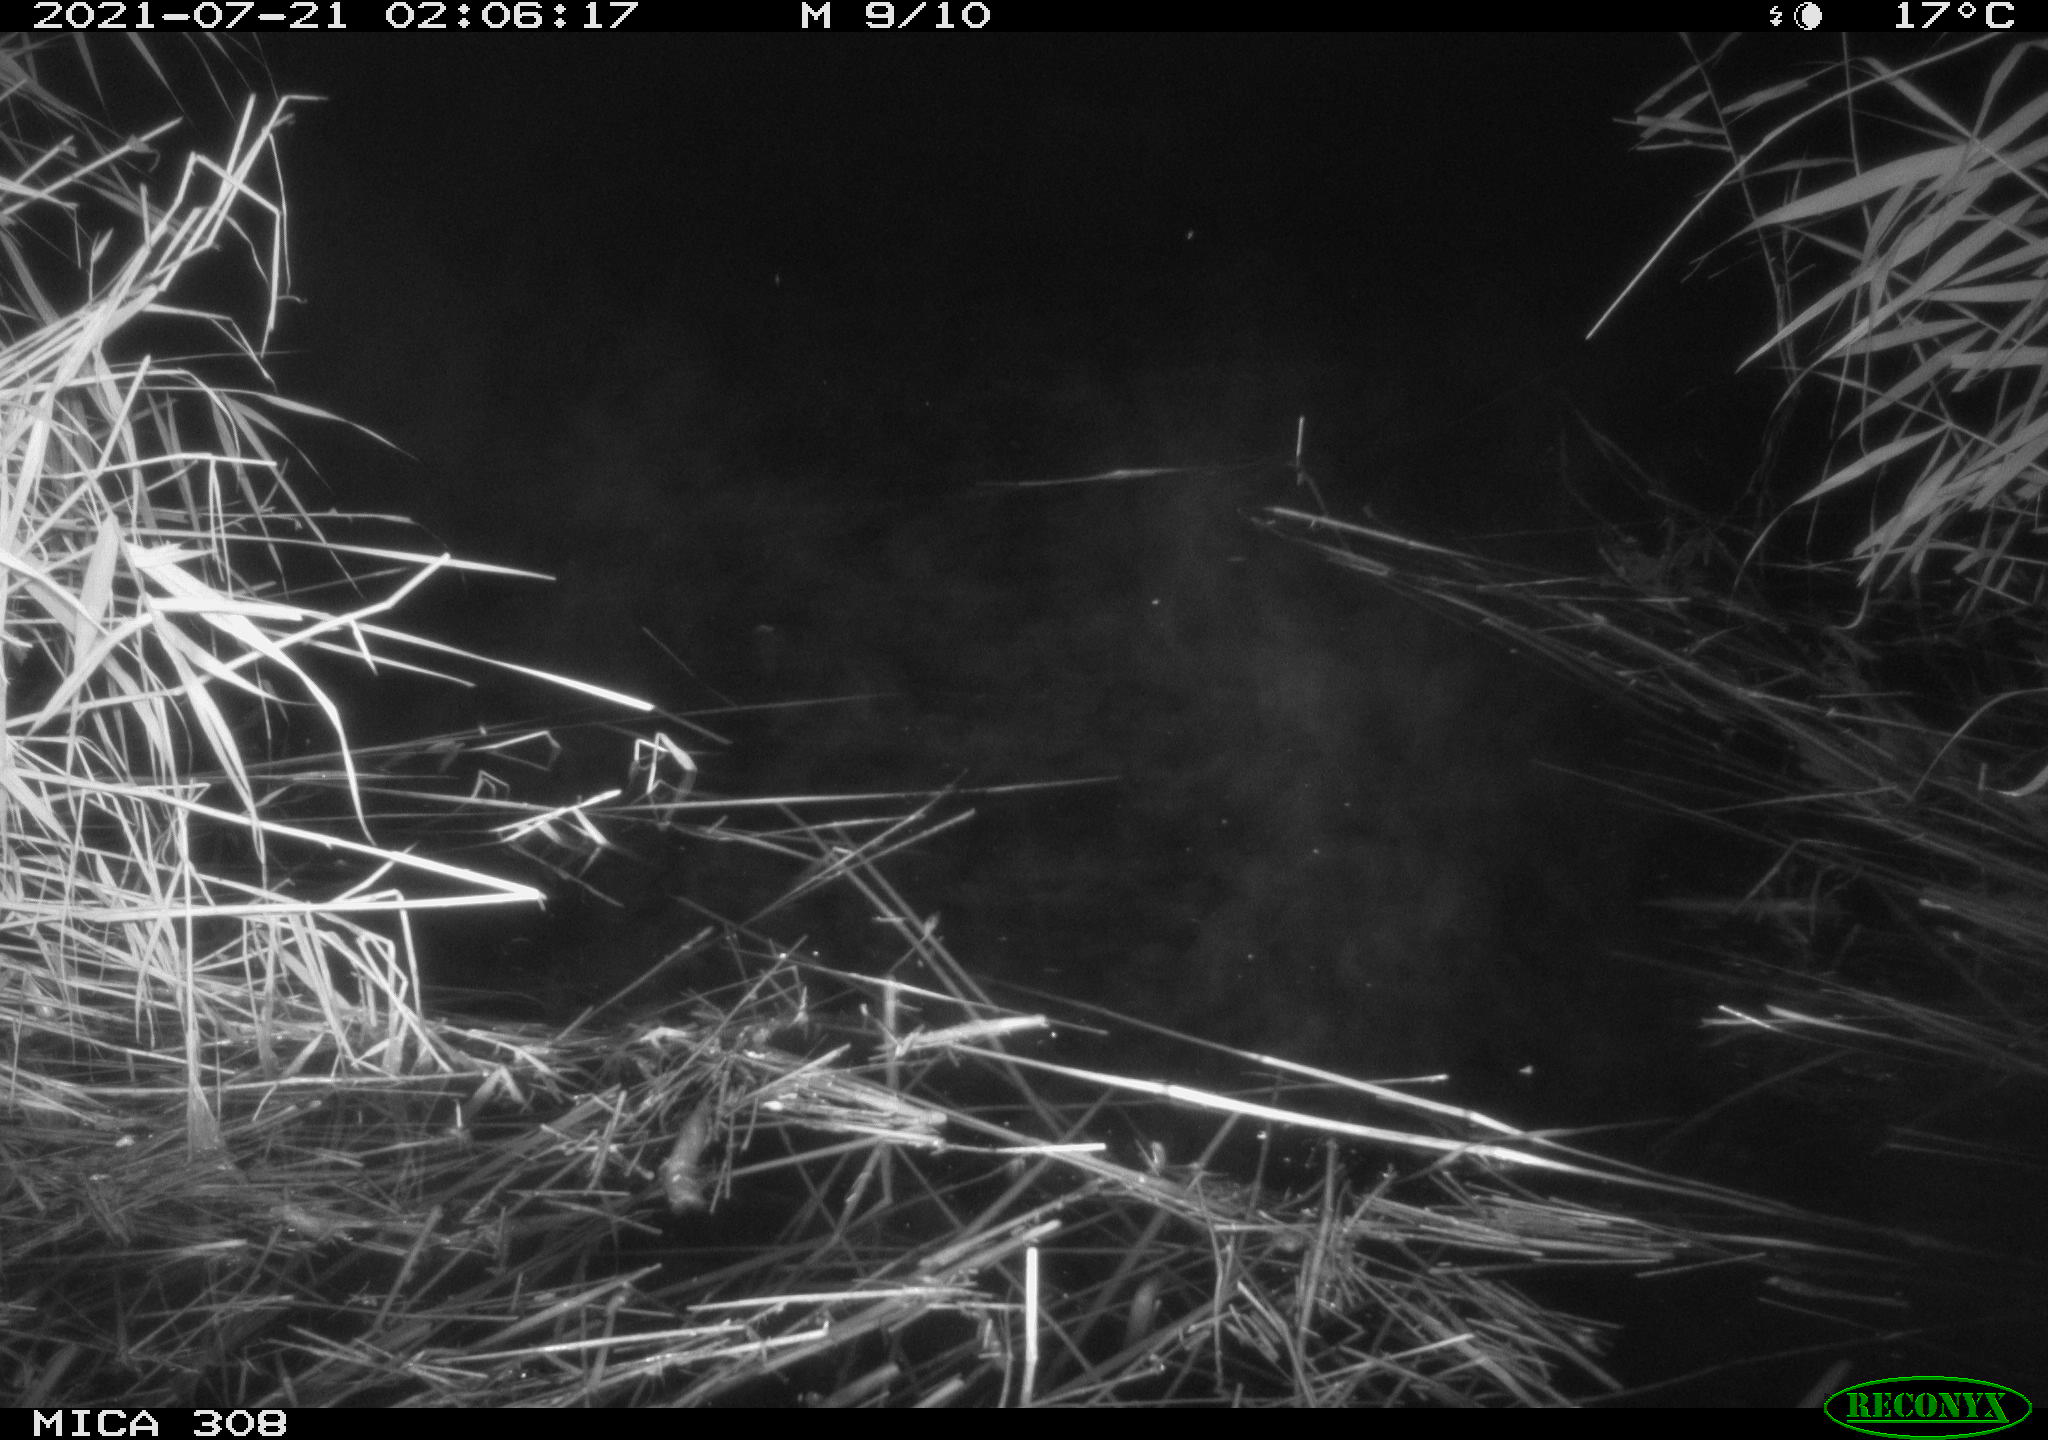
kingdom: Animalia
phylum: Chordata
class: Aves
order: Anseriformes
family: Anatidae
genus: Anas
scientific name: Anas platyrhynchos
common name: Mallard
